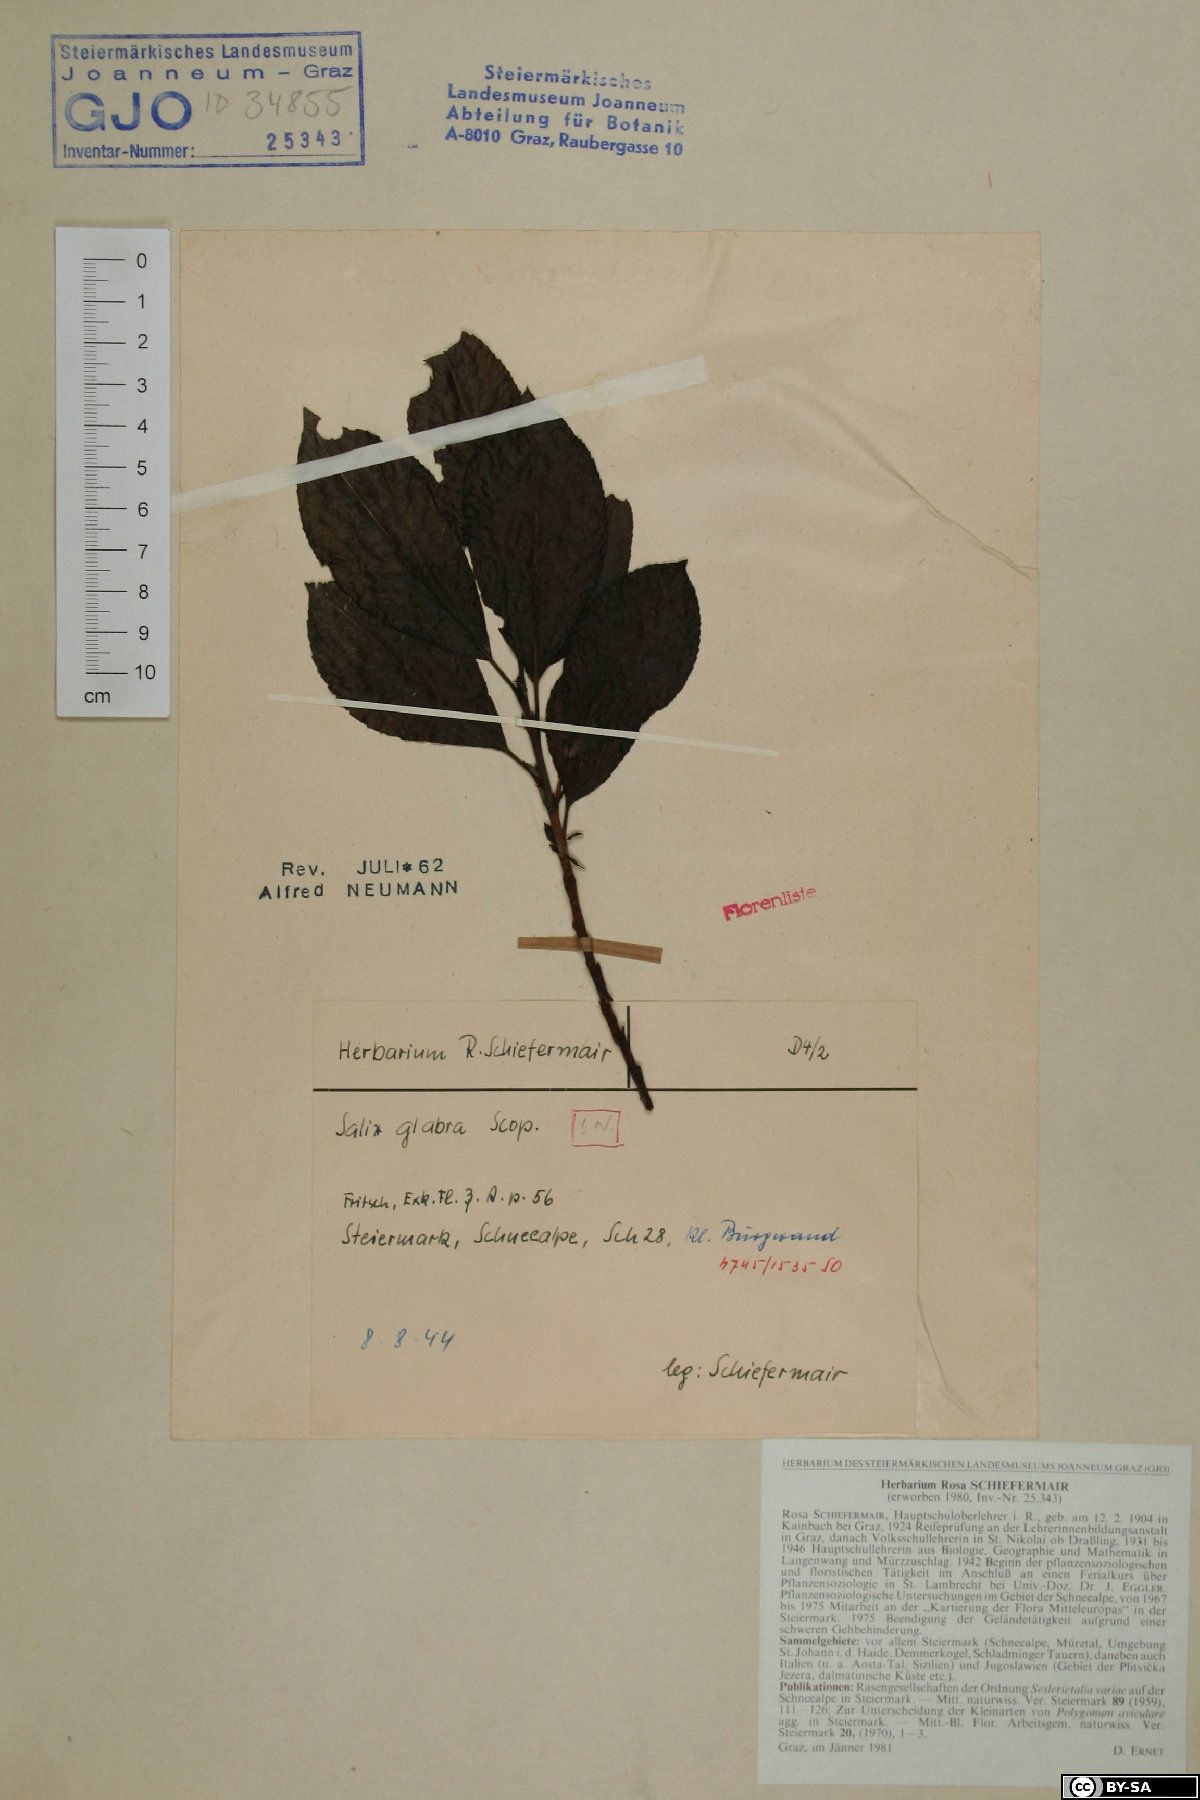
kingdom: Plantae
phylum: Tracheophyta
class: Magnoliopsida
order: Malpighiales
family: Salicaceae
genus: Salix
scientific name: Salix glabra
